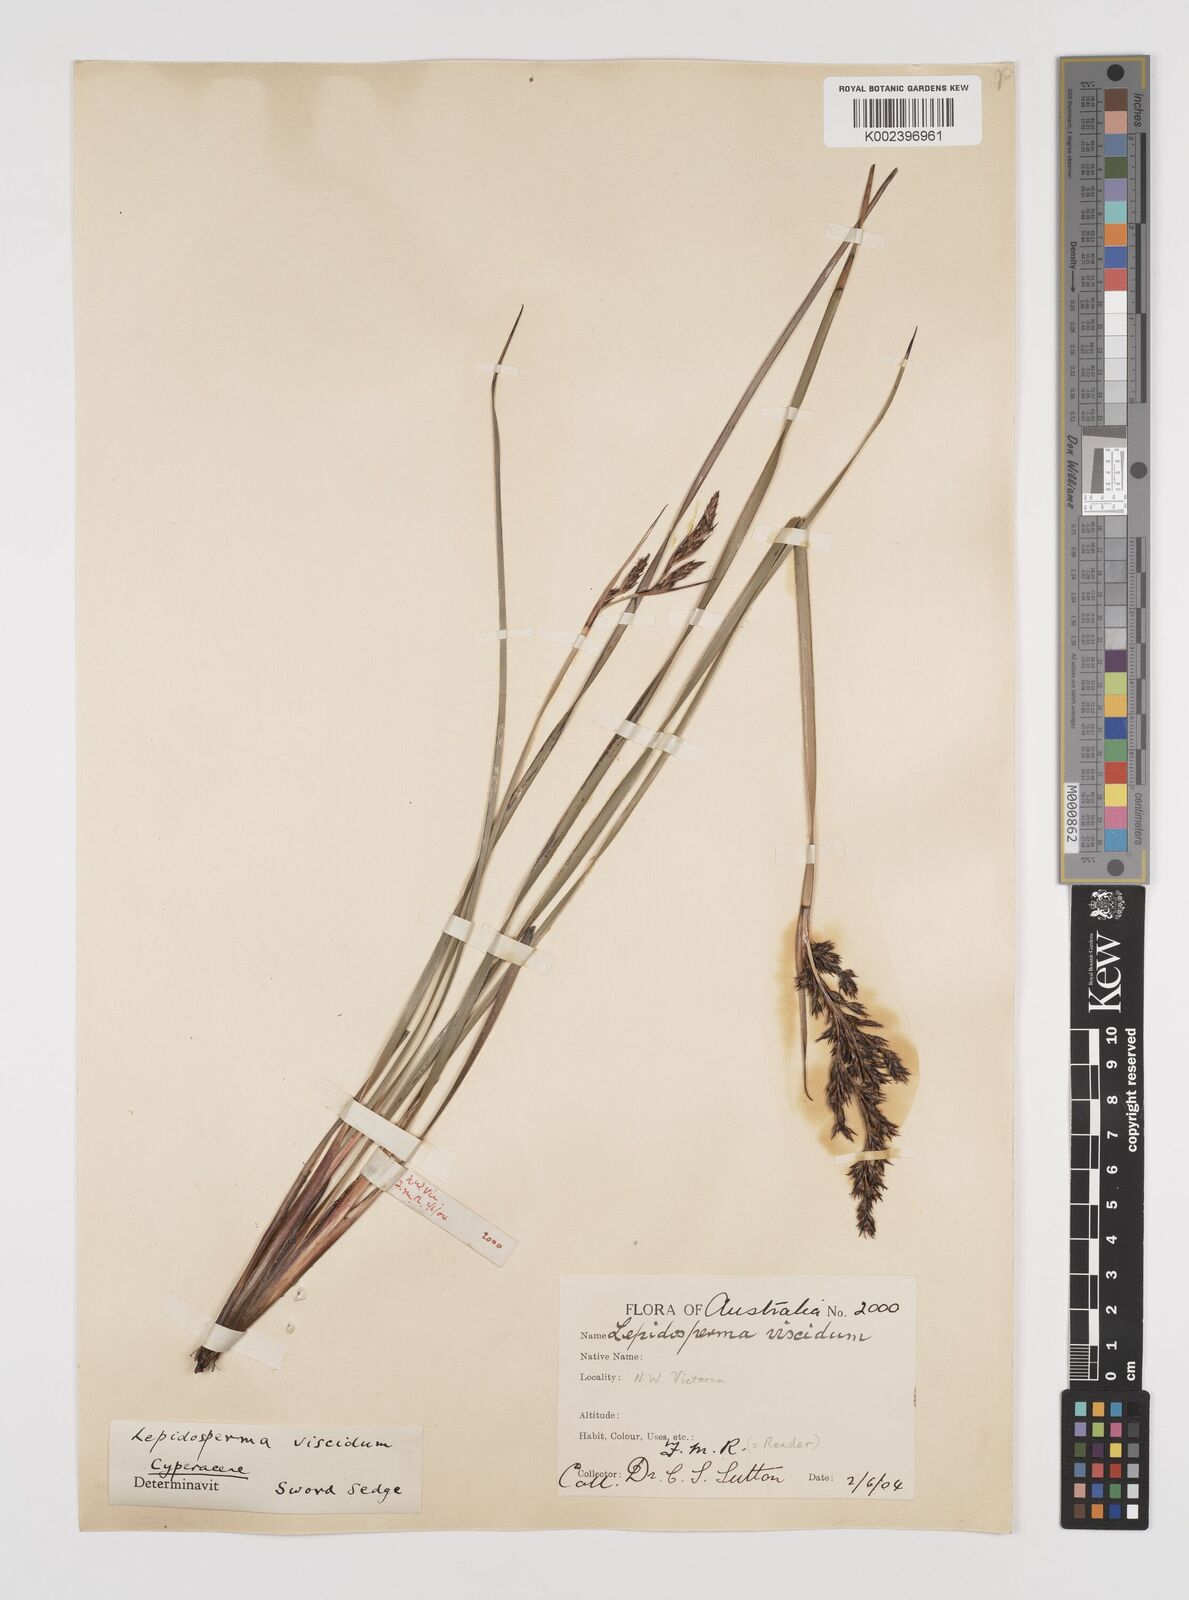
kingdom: Plantae
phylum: Tracheophyta
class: Liliopsida
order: Poales
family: Cyperaceae
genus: Lepidosperma
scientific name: Lepidosperma viscidum
